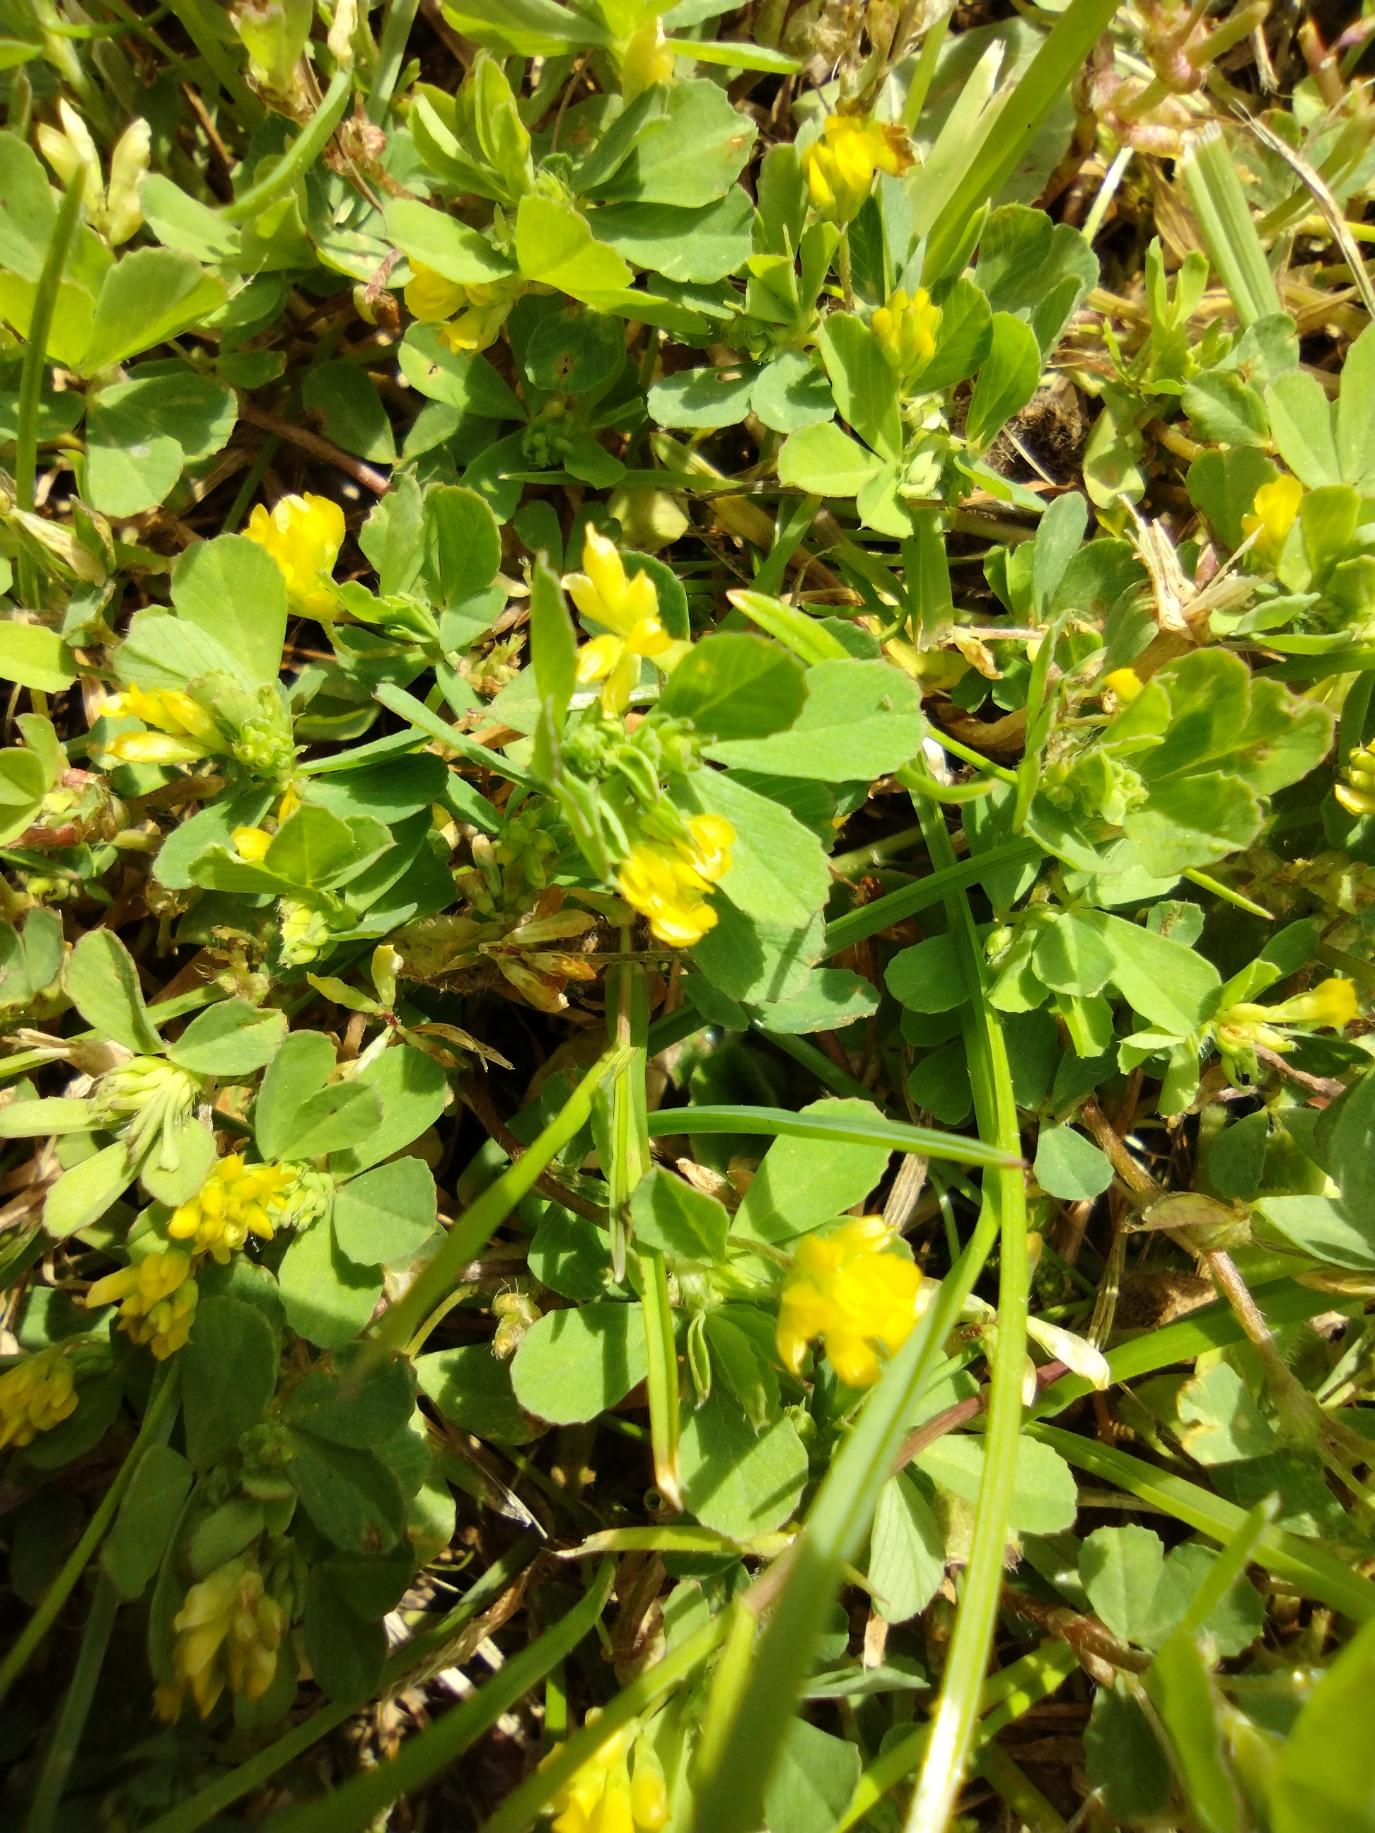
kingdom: Plantae
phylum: Tracheophyta
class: Magnoliopsida
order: Fabales
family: Fabaceae
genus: Trifolium
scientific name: Trifolium dubium
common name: Fin kløver
